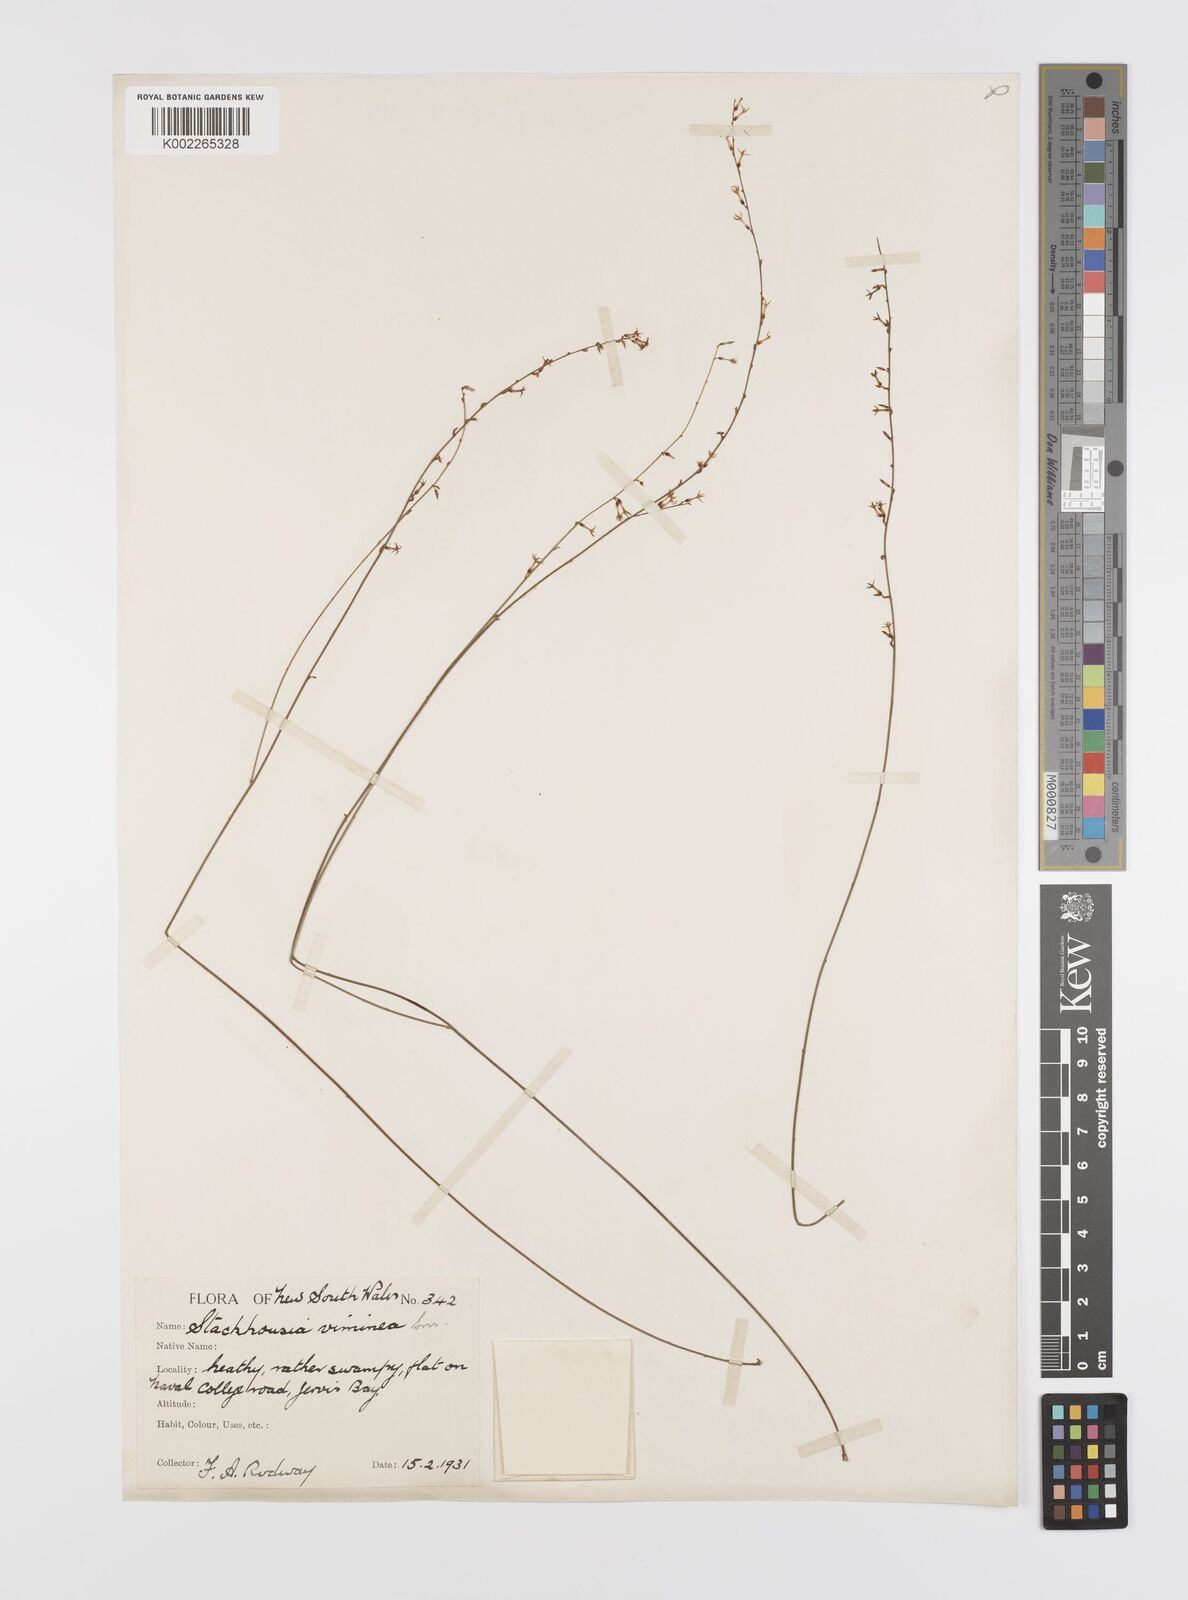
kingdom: Plantae
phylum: Tracheophyta
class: Magnoliopsida
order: Celastrales
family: Celastraceae
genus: Stackhousia
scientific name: Stackhousia viminea
